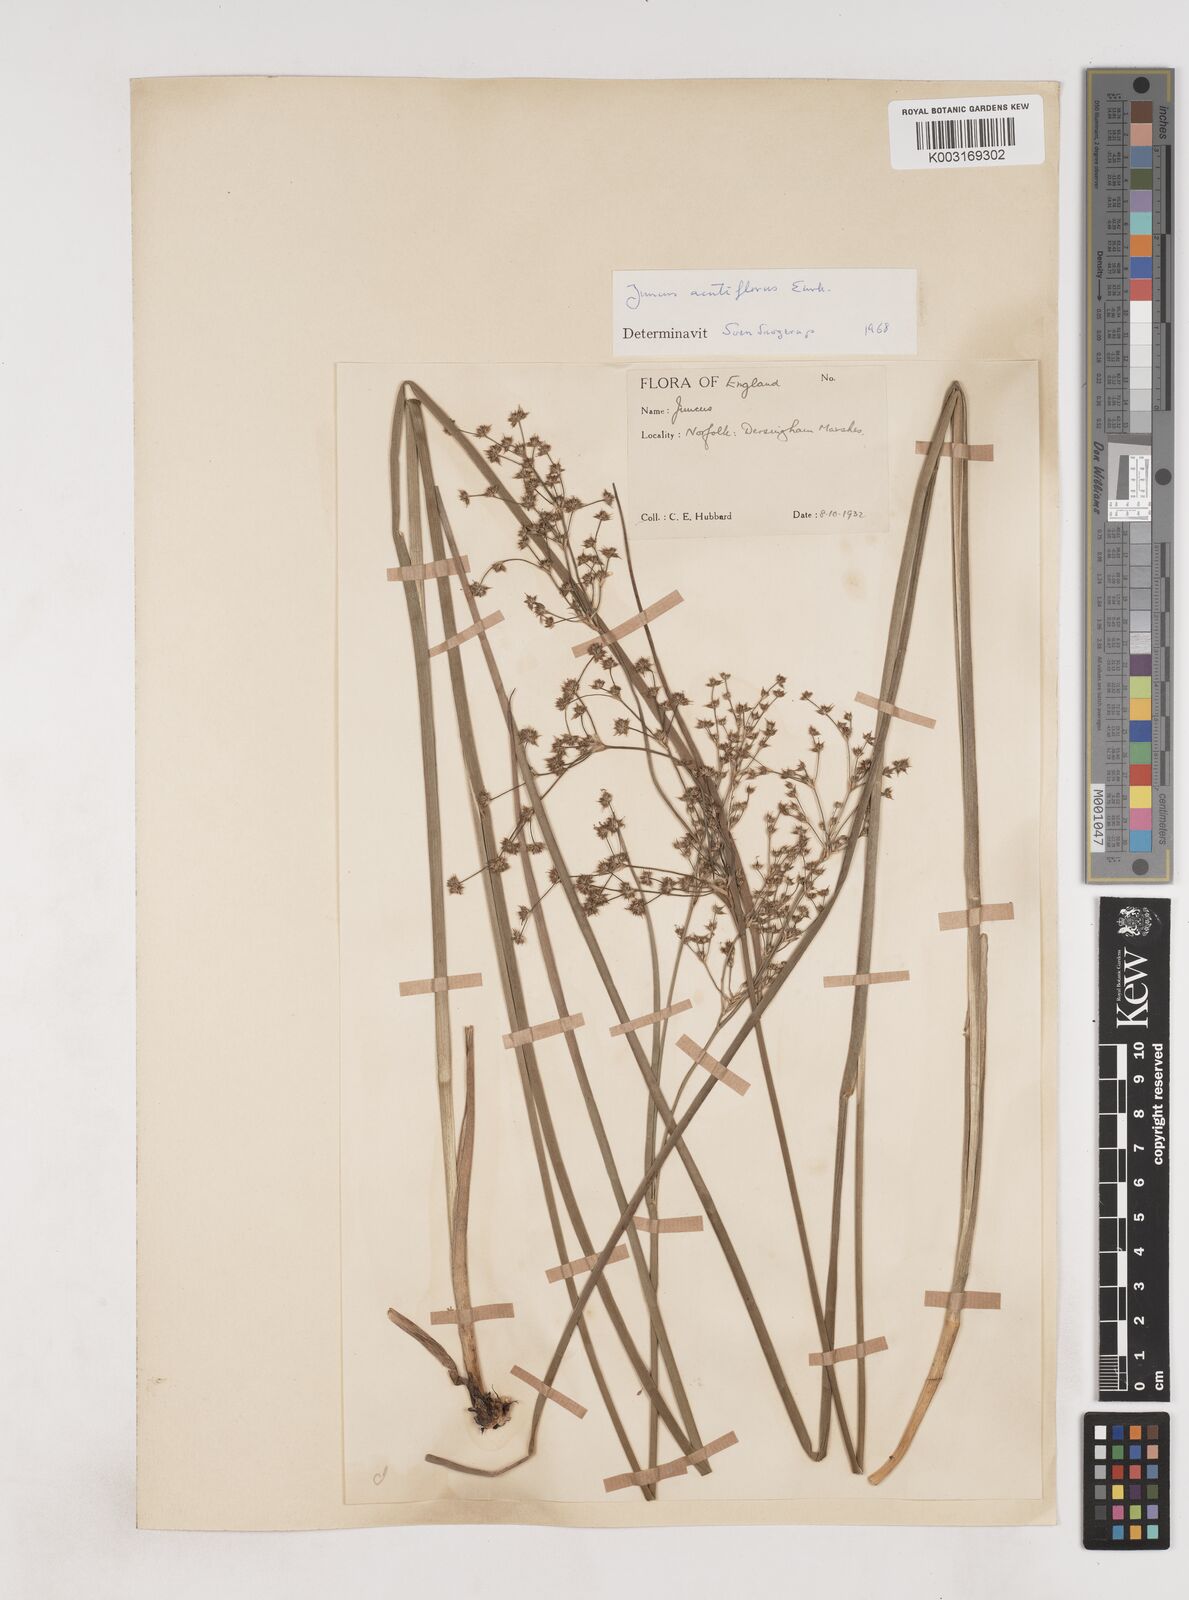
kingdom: Plantae
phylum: Tracheophyta
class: Liliopsida
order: Poales
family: Juncaceae
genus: Juncus
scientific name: Juncus acutiflorus
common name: Sharp-flowered rush
